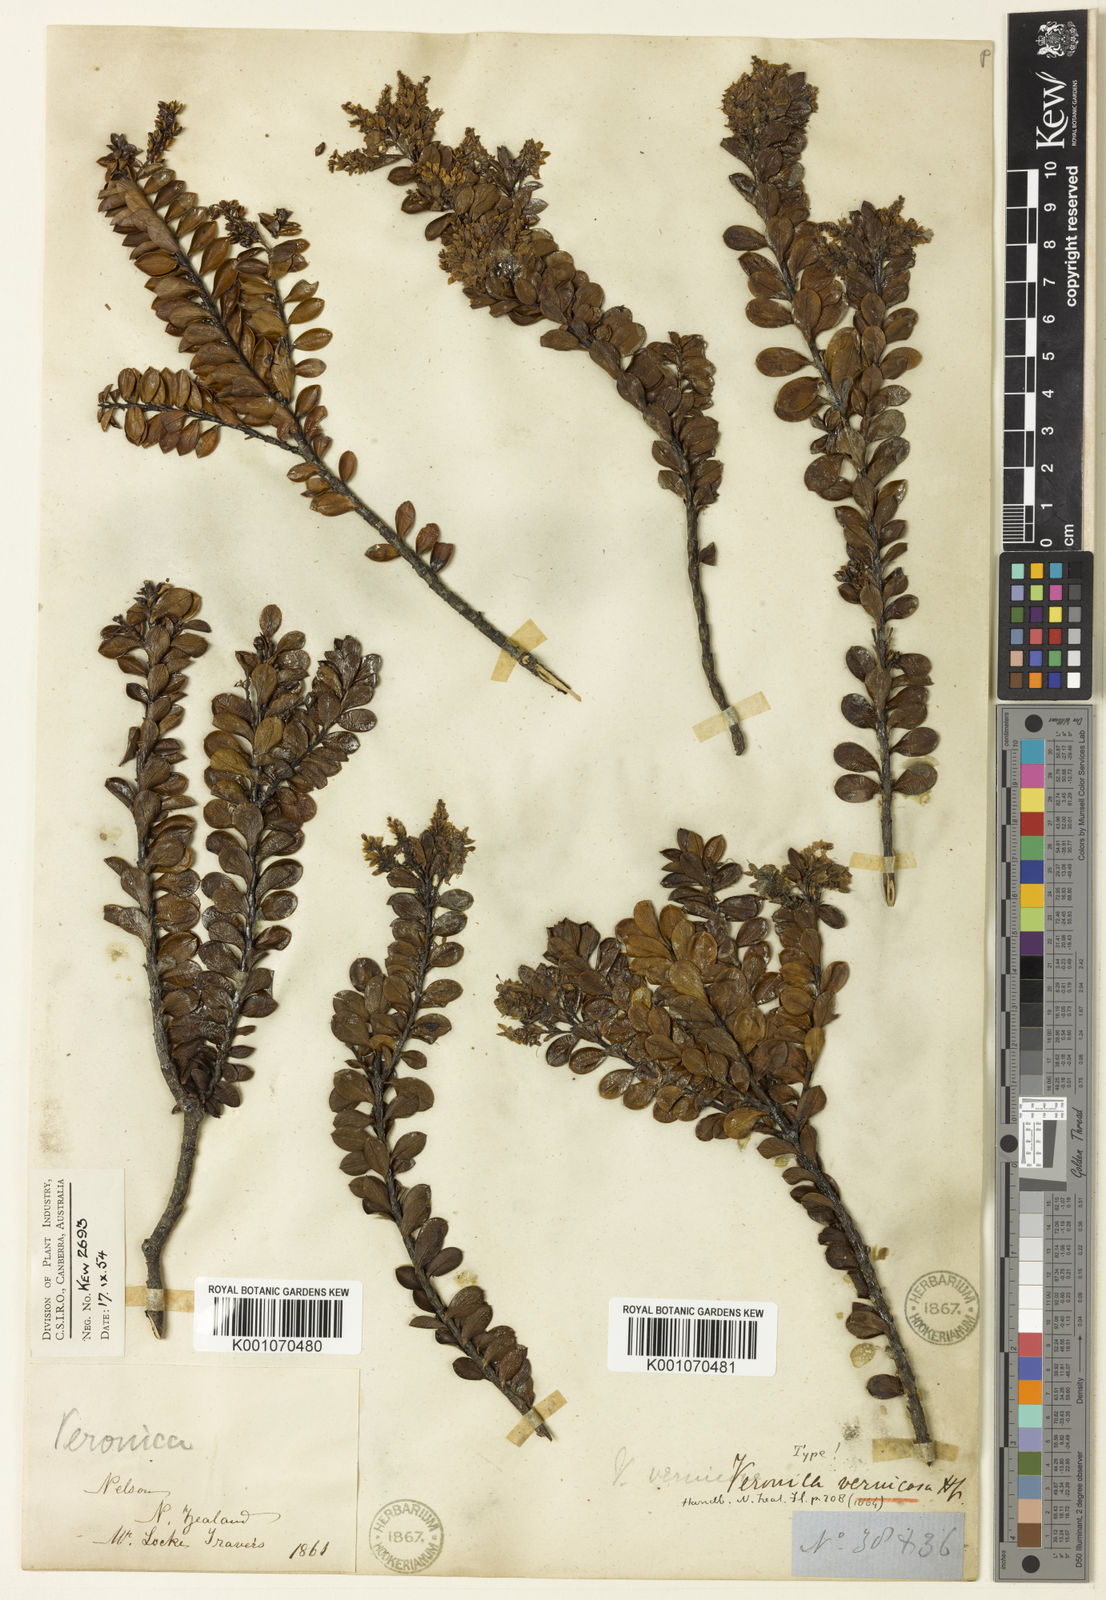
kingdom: Plantae
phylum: Tracheophyta
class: Magnoliopsida
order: Lamiales
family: Plantaginaceae
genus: Veronica
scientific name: Veronica vernicosa
